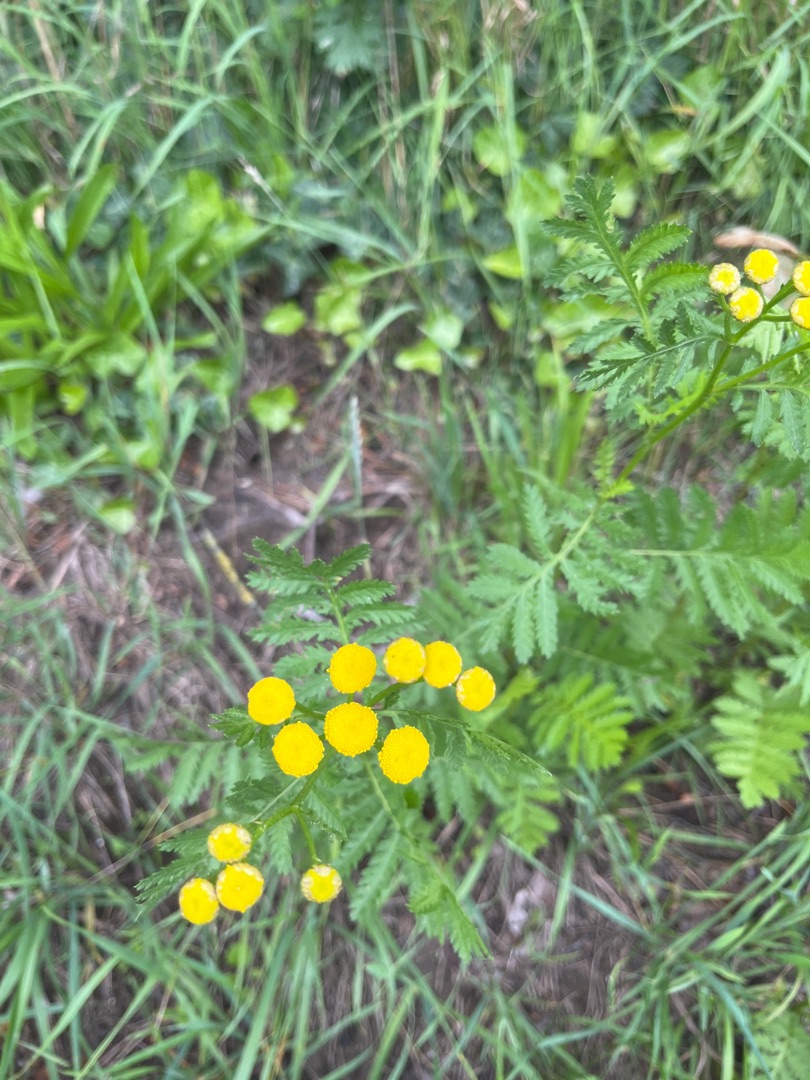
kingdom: Plantae
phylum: Tracheophyta
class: Magnoliopsida
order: Asterales
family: Asteraceae
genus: Tanacetum
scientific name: Tanacetum vulgare
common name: Rejnfan
